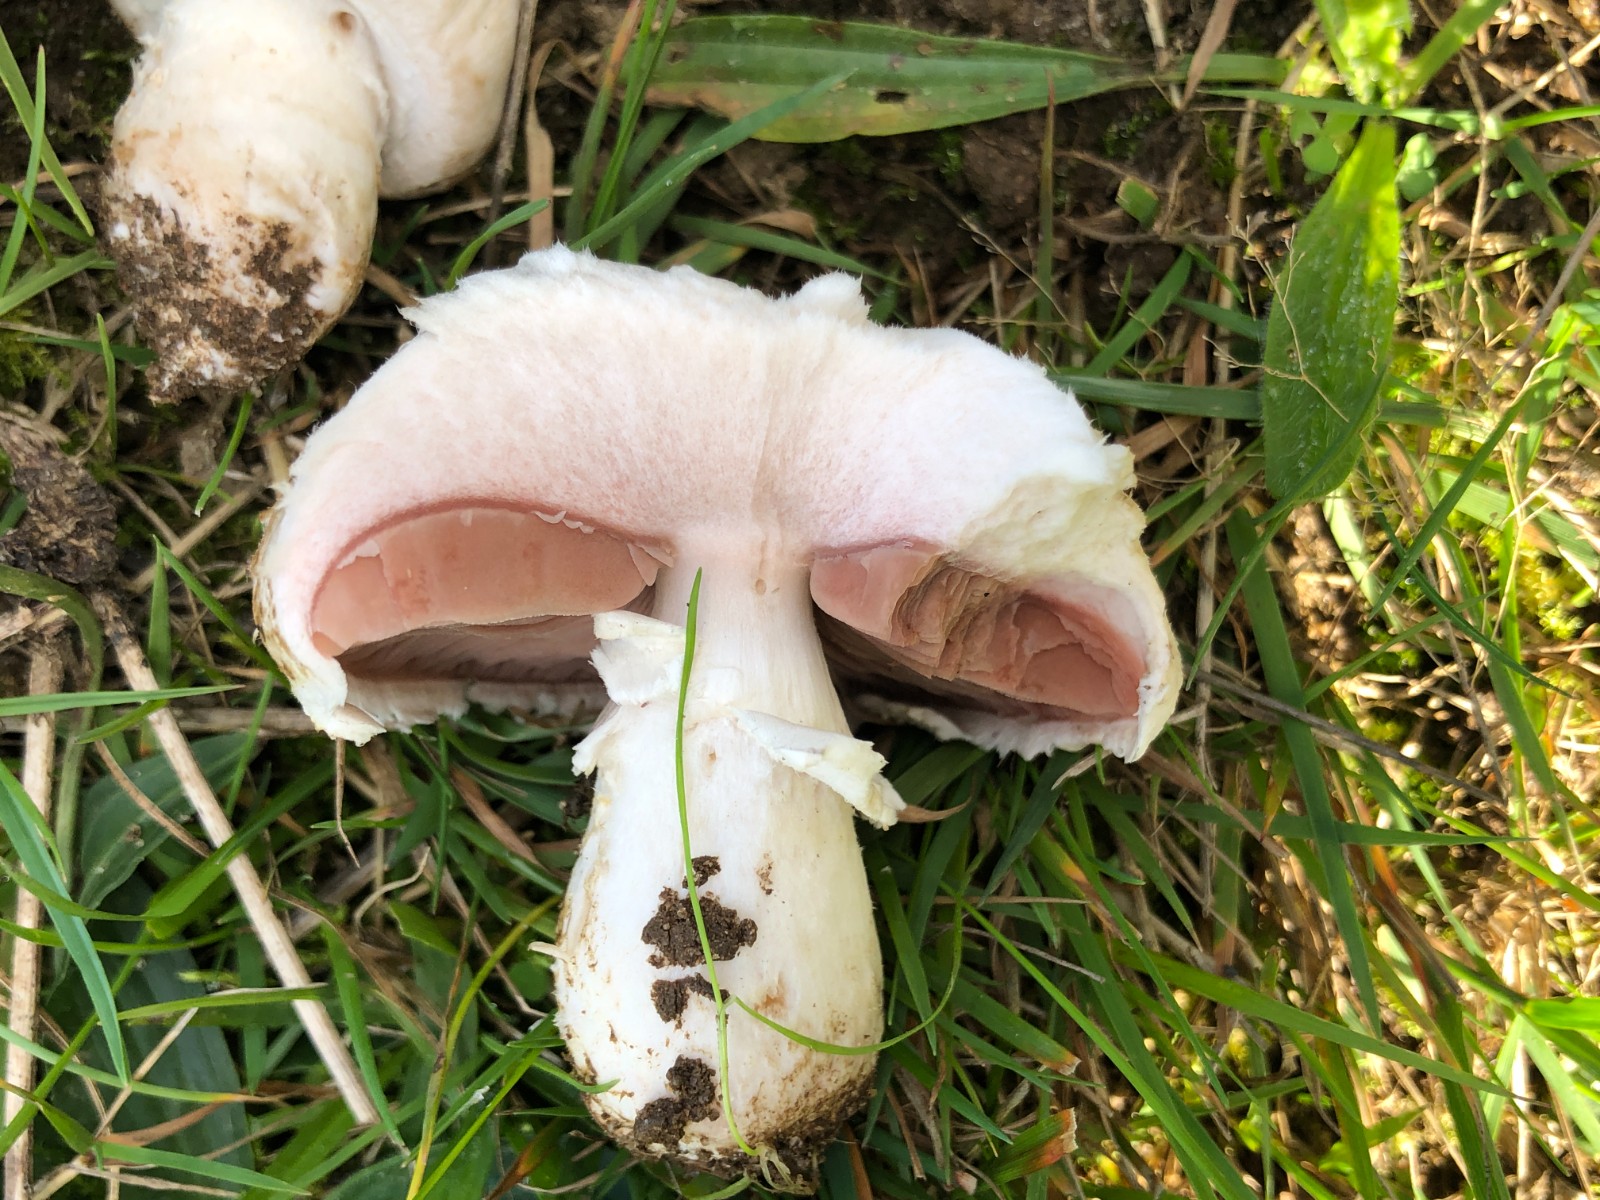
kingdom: Fungi
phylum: Basidiomycota
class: Agaricomycetes
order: Agaricales
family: Agaricaceae
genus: Agaricus
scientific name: Agaricus campestris
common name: mark-champignon
